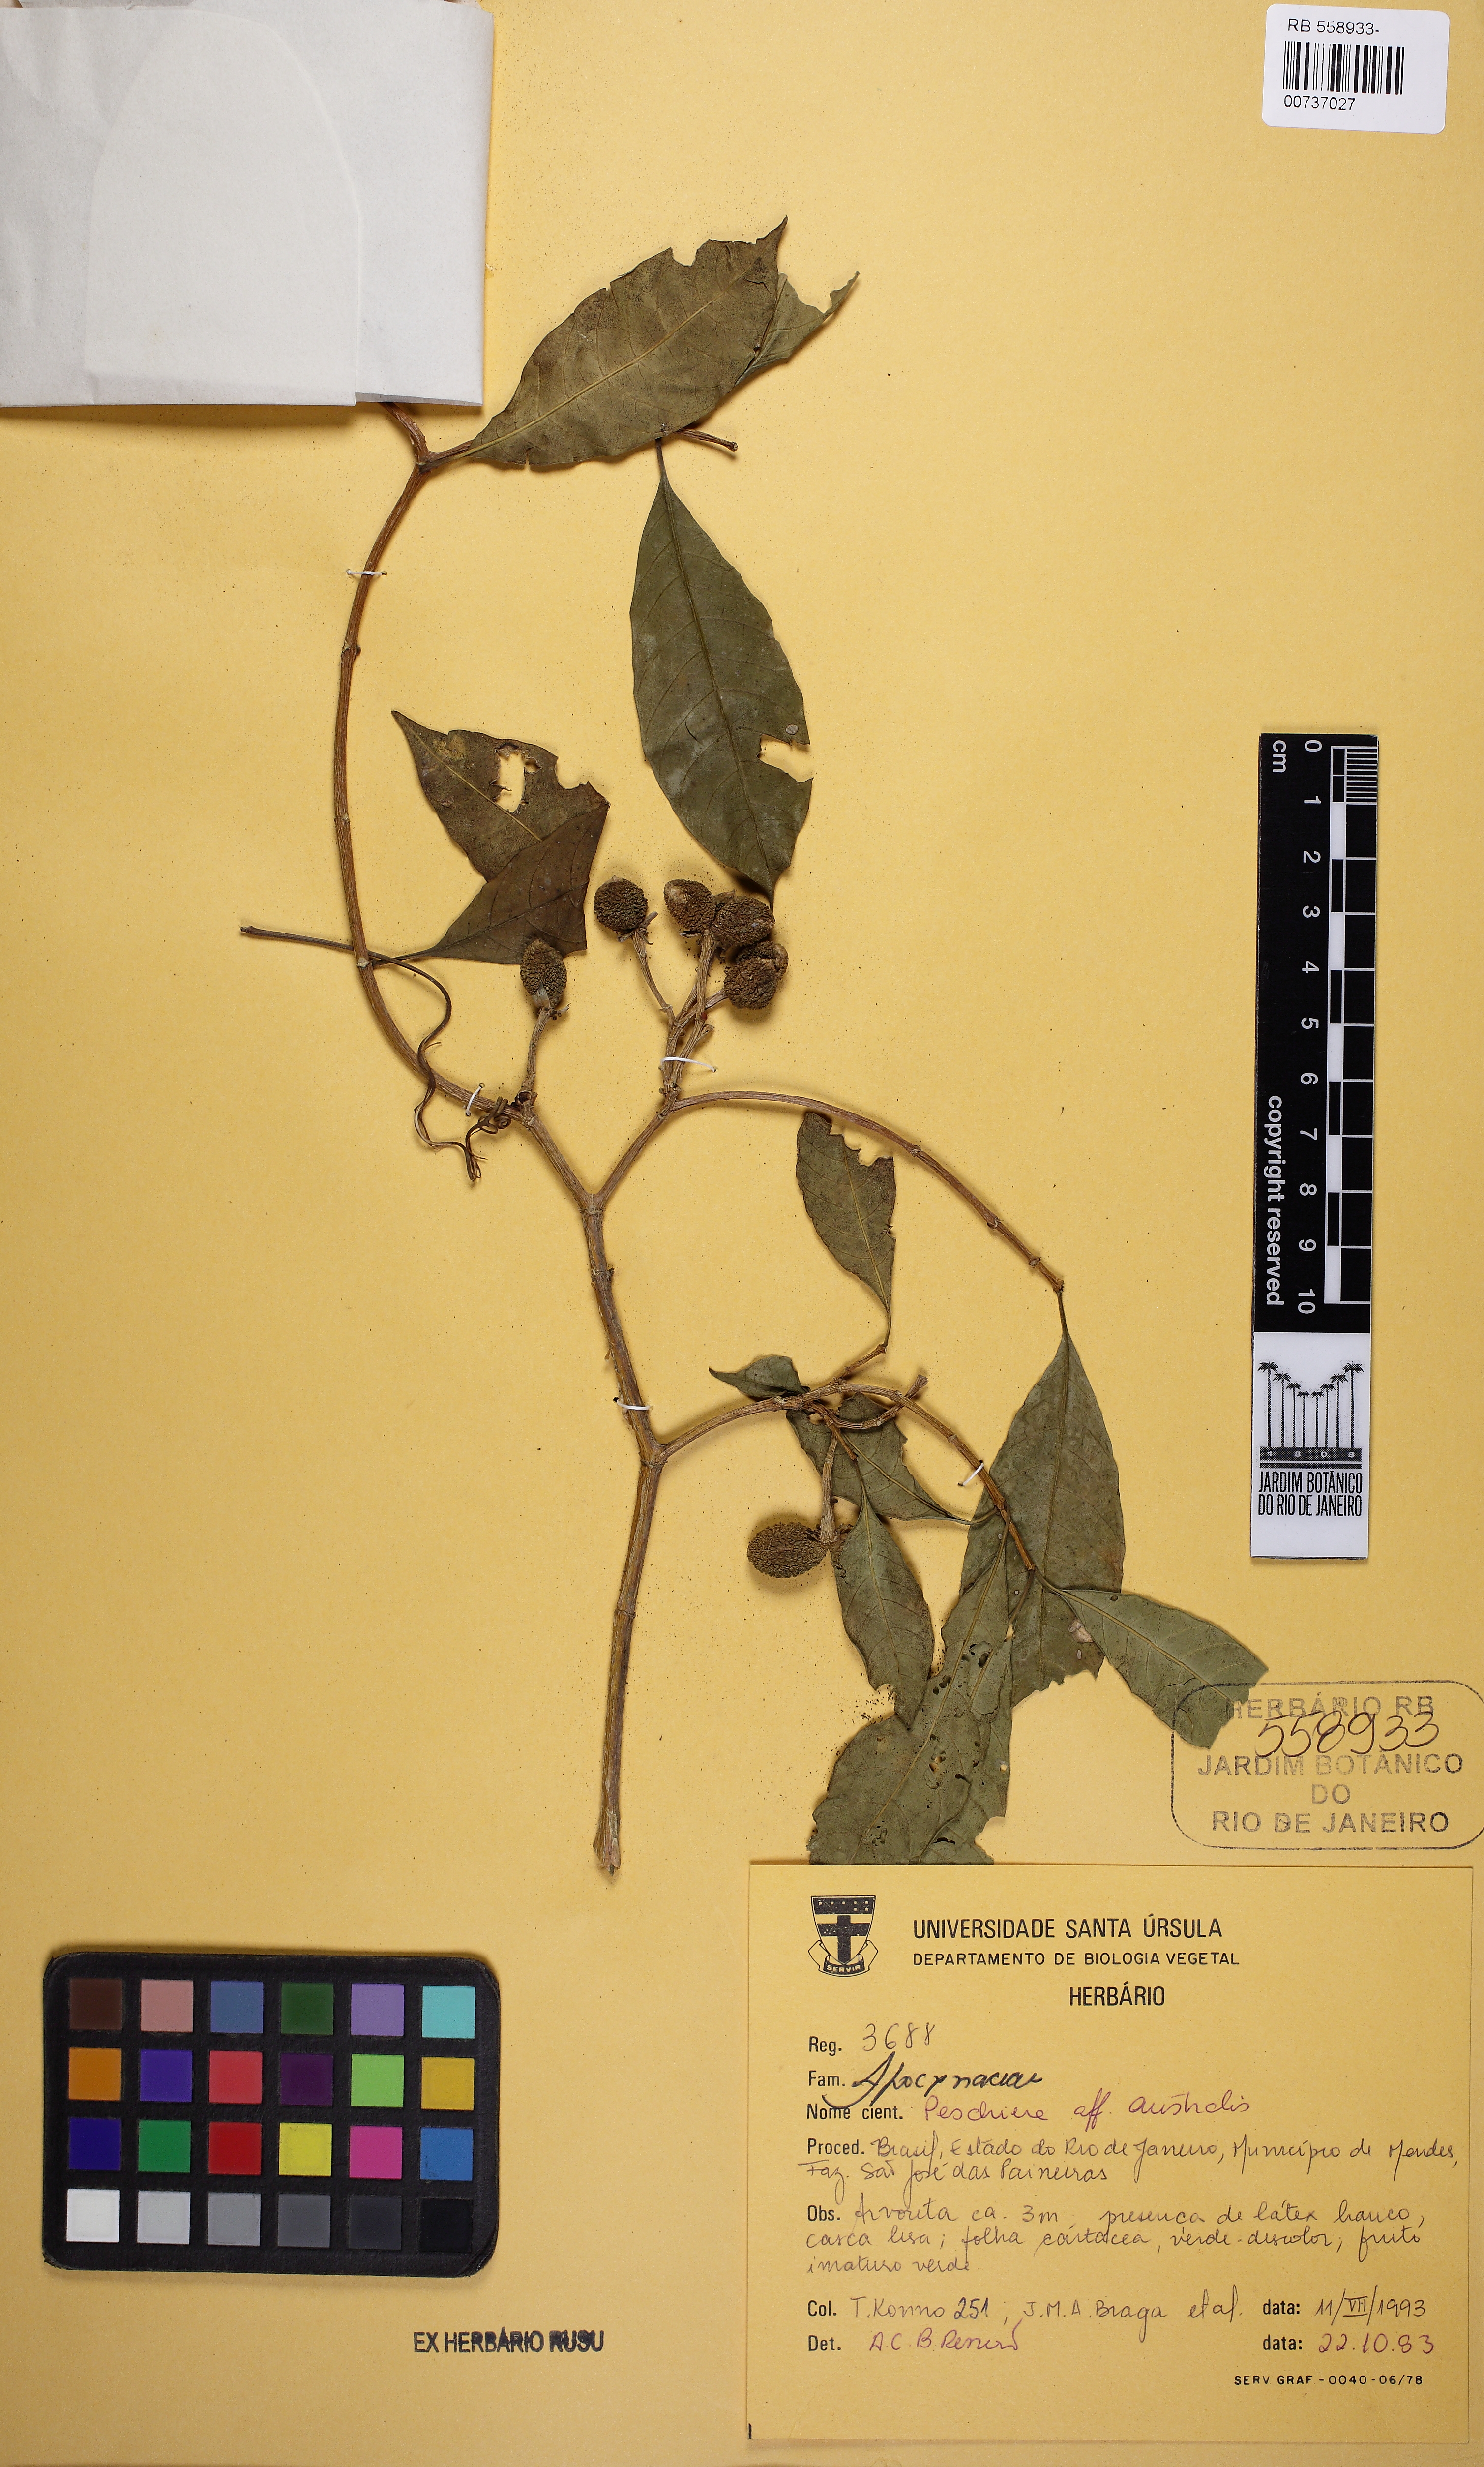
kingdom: Plantae
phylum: Tracheophyta
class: Magnoliopsida
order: Gentianales
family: Apocynaceae
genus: Tabernaemontana
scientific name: Tabernaemontana catharinensis
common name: Pinwheel-flower
